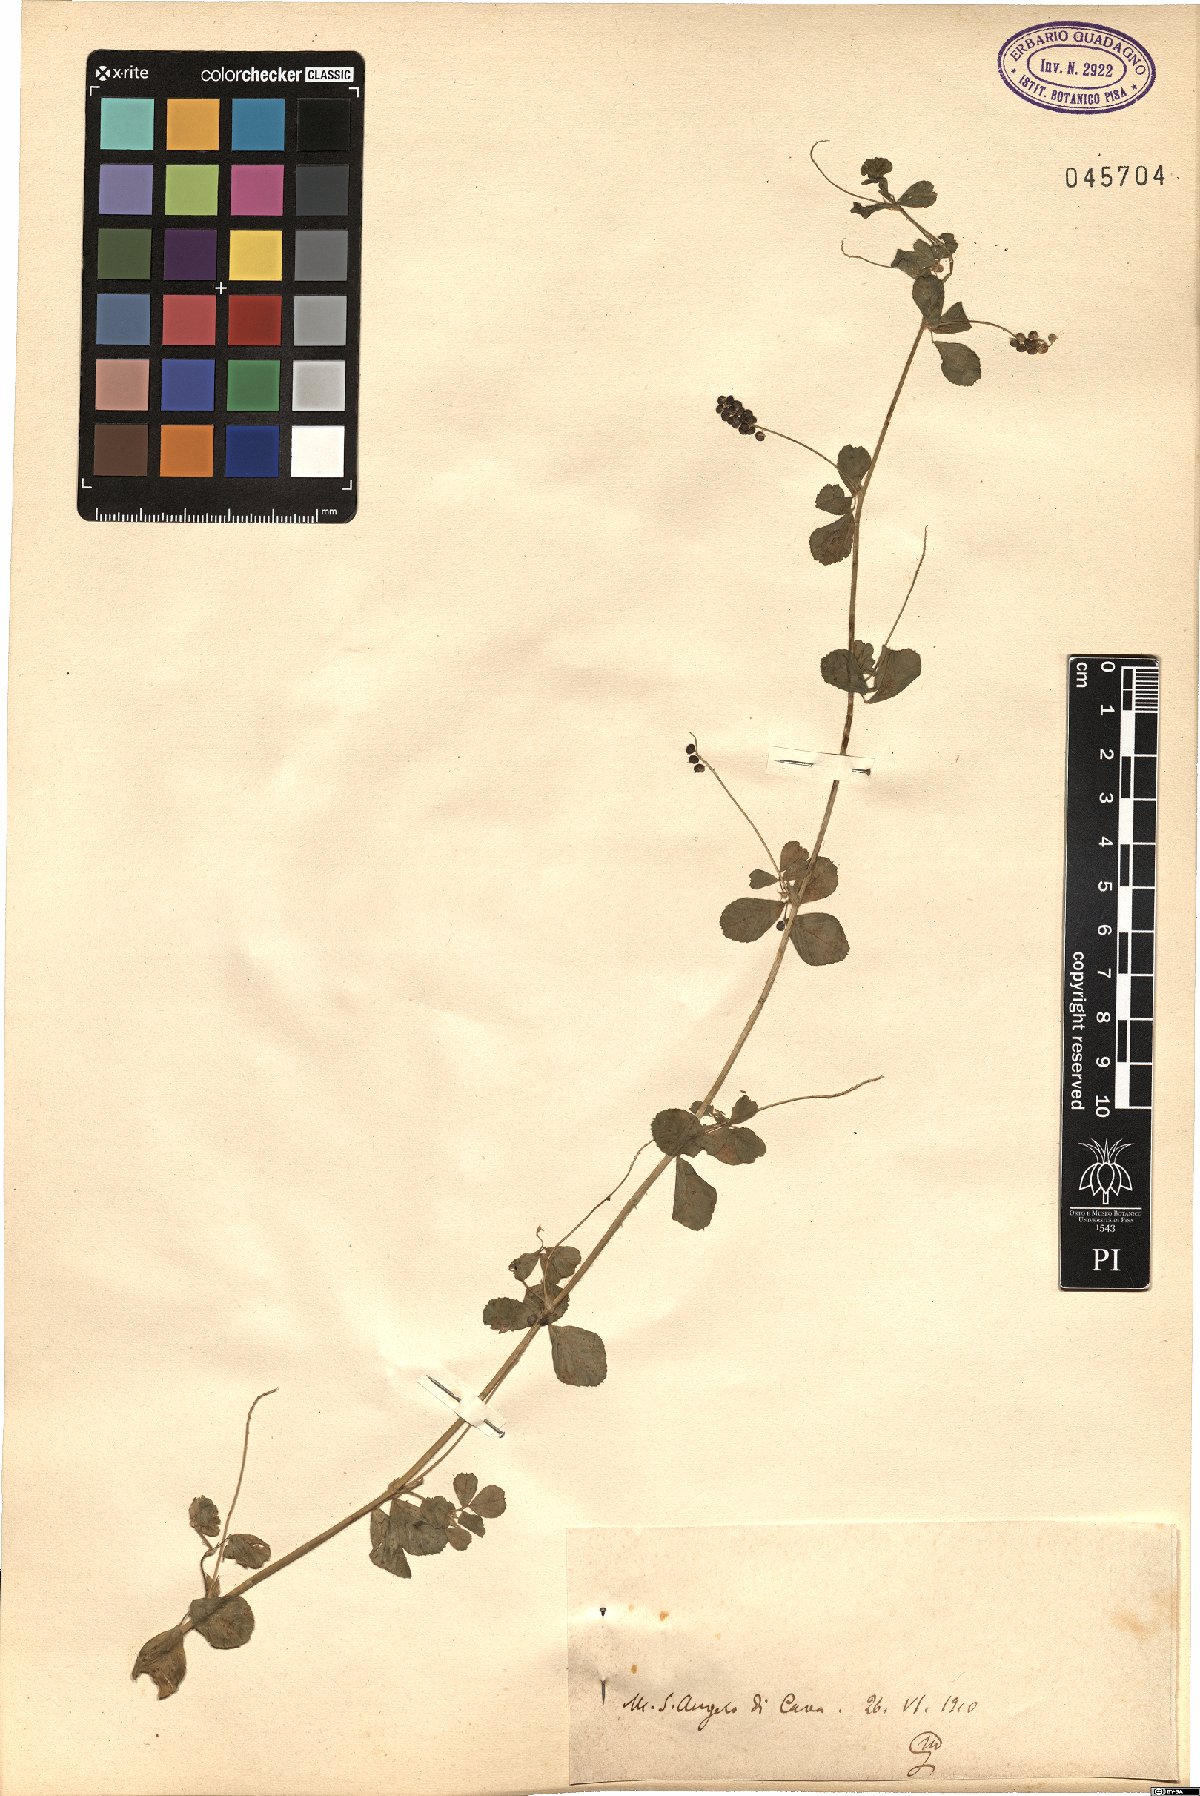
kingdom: Plantae
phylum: Tracheophyta
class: Magnoliopsida
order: Fabales
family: Fabaceae
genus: Medicago
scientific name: Medicago
